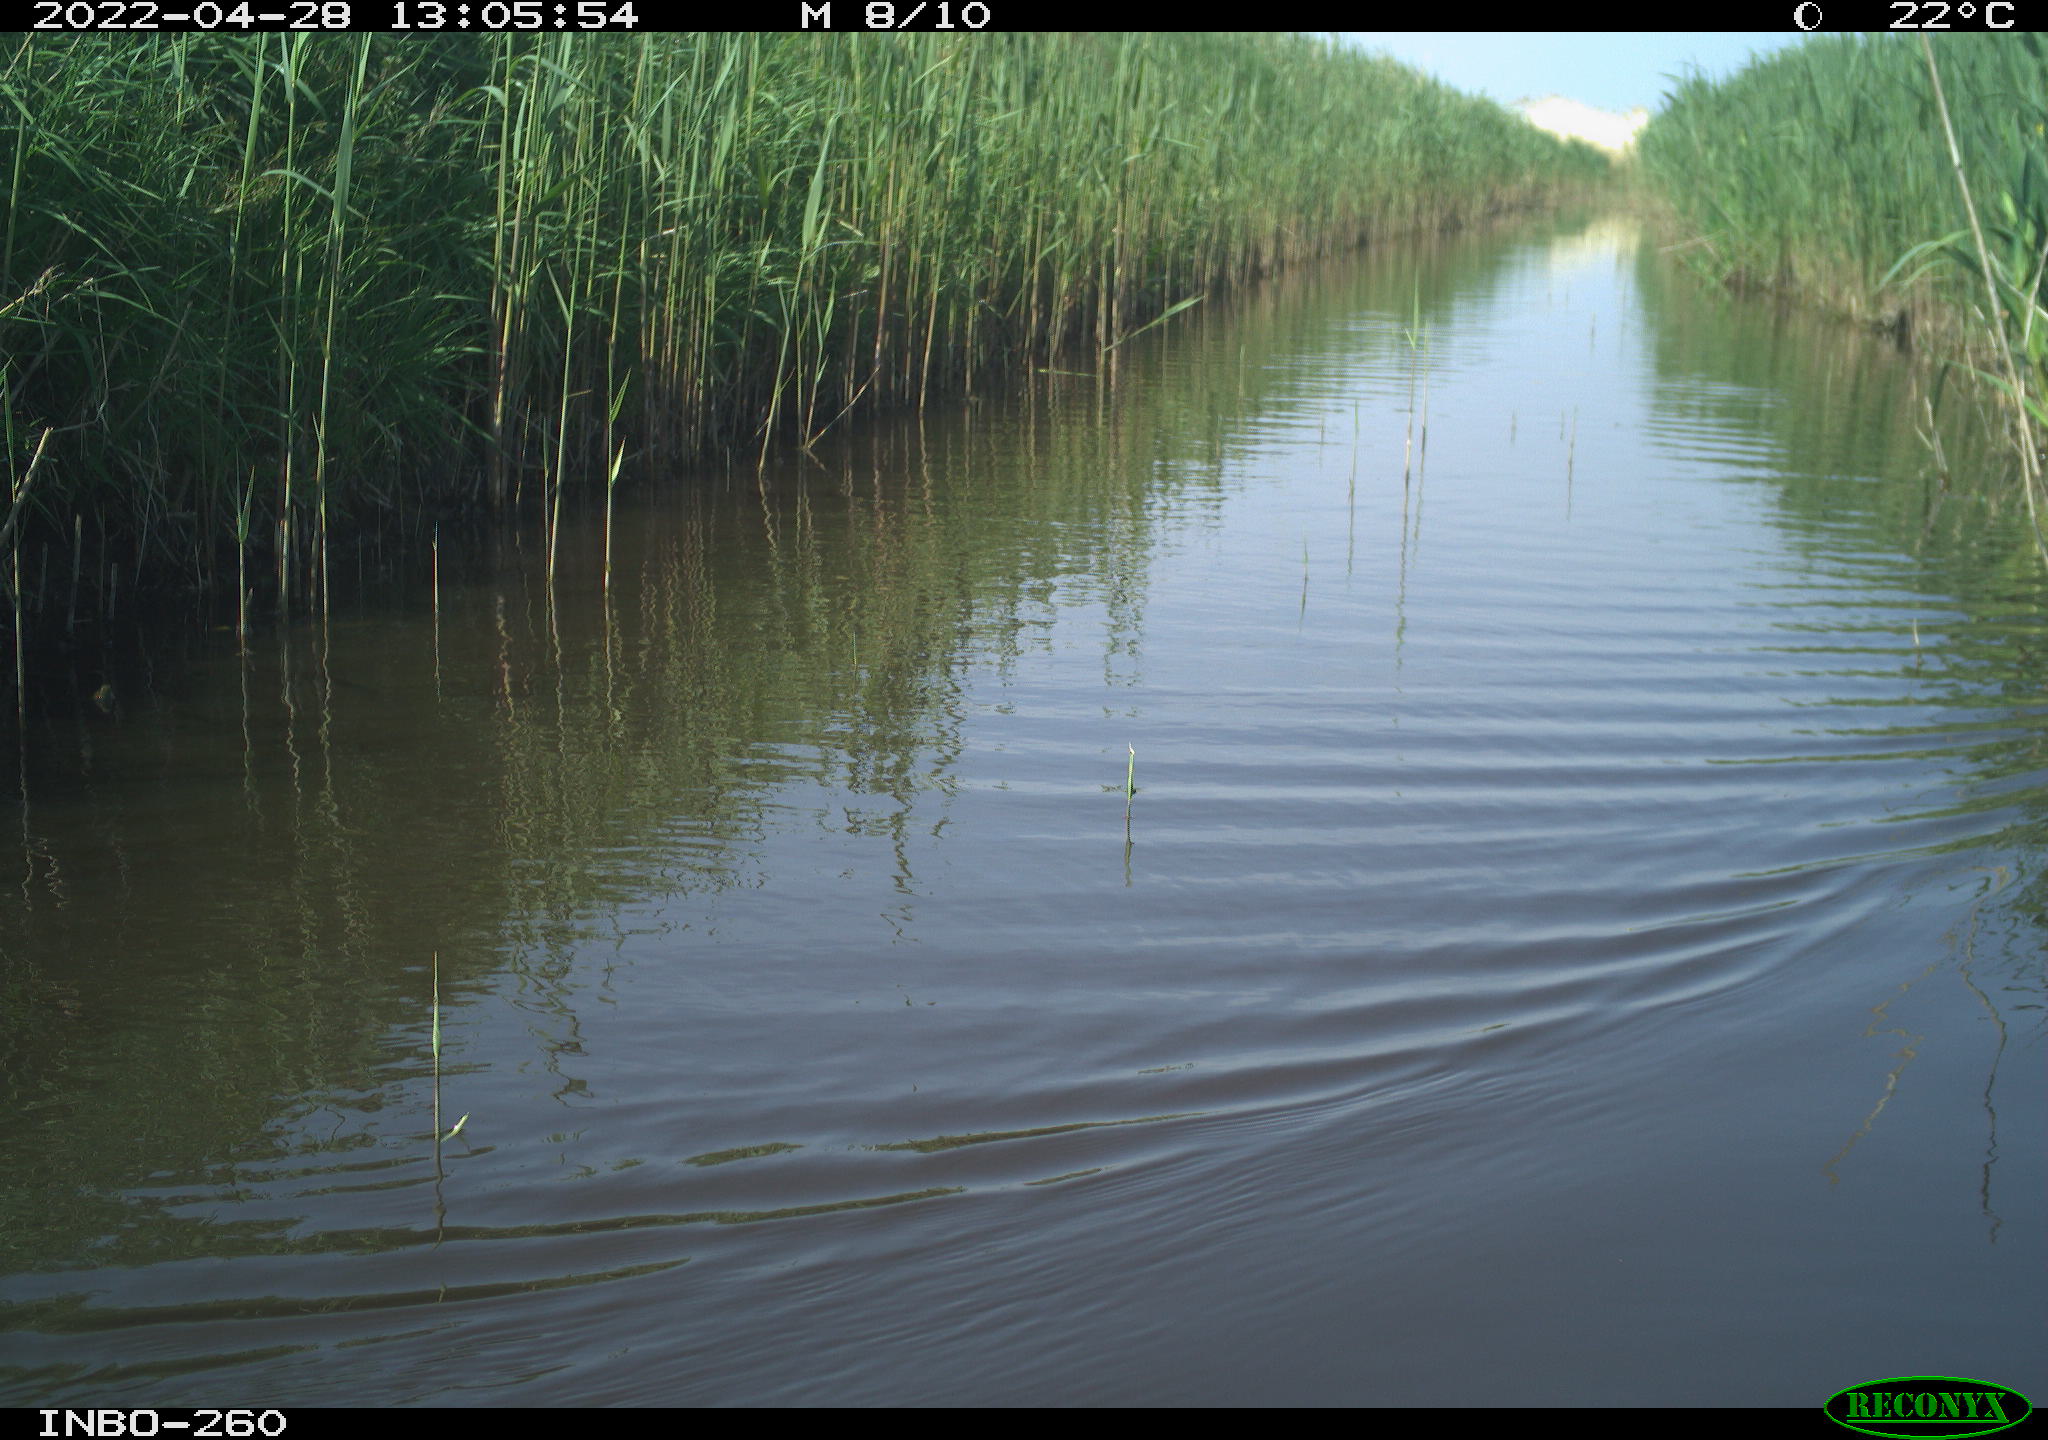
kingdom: Animalia
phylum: Chordata
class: Aves
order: Gruiformes
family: Rallidae
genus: Fulica
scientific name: Fulica atra
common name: Eurasian coot
